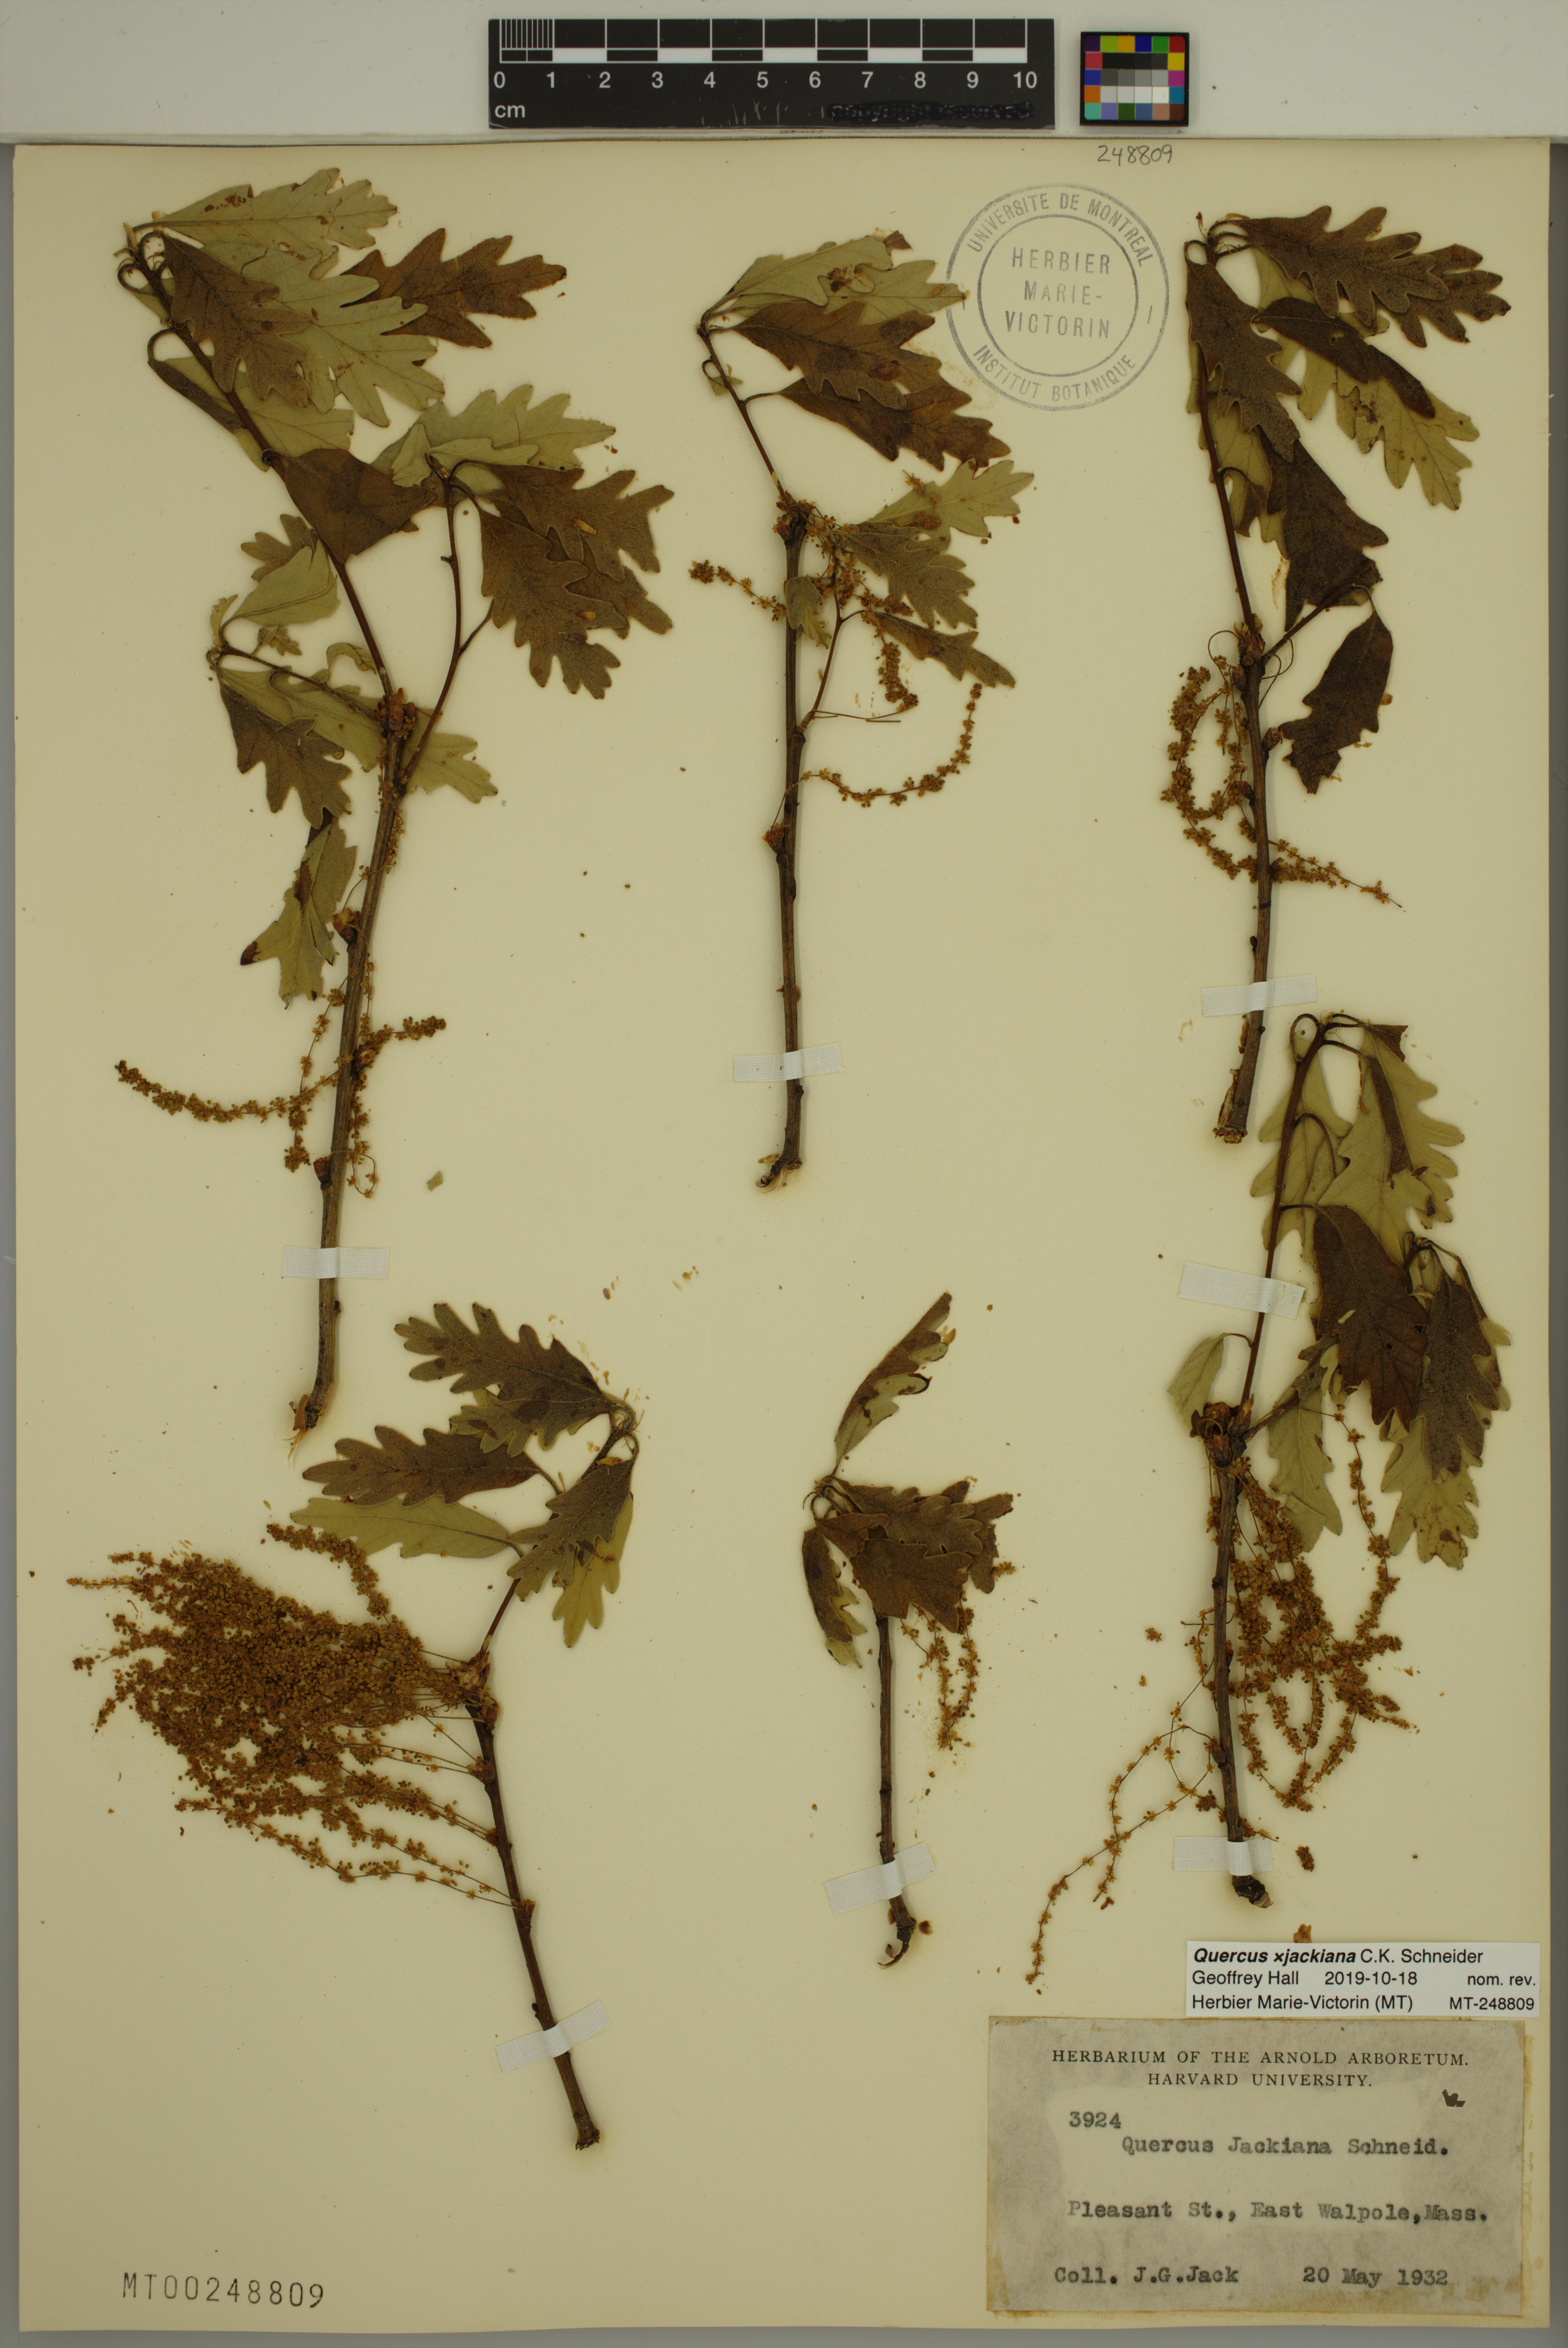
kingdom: Plantae
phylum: Tracheophyta
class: Magnoliopsida
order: Fagales
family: Fagaceae
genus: Quercus
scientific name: Quercus jackiana
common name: Jack's oak
